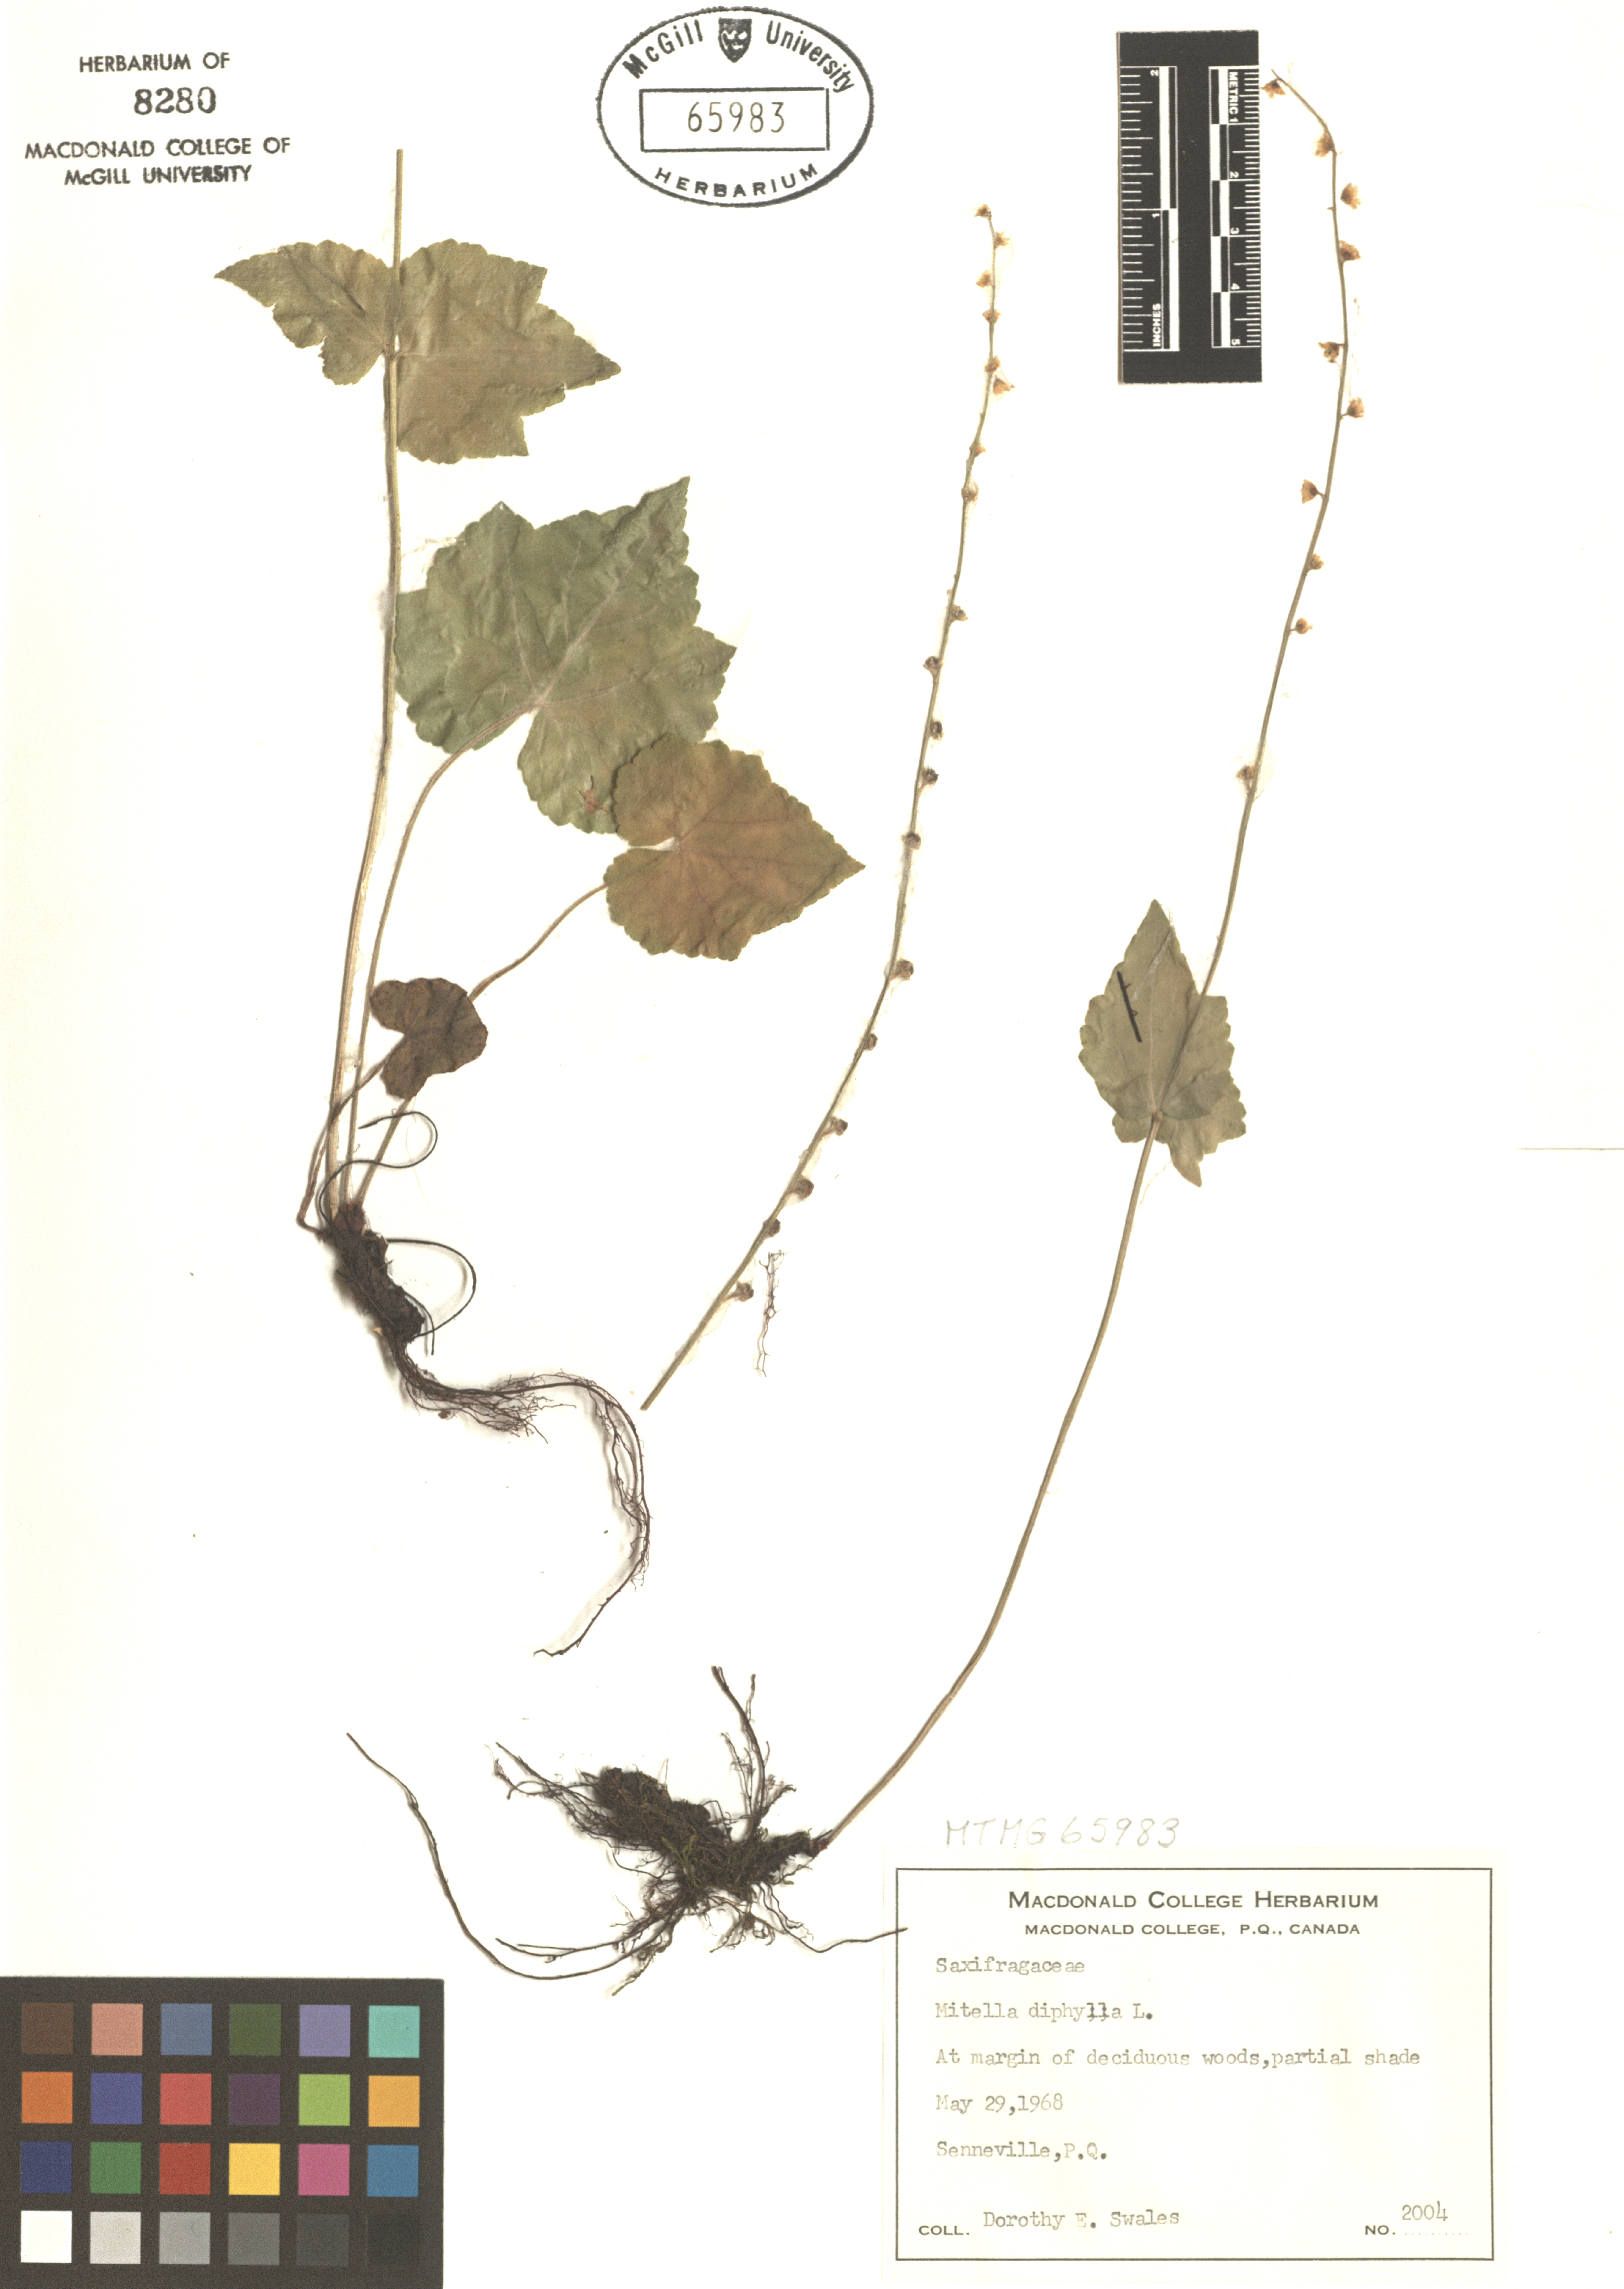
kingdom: Plantae
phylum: Tracheophyta
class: Magnoliopsida
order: Saxifragales
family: Saxifragaceae
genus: Mitella
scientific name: Mitella diphylla
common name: Coolwort
